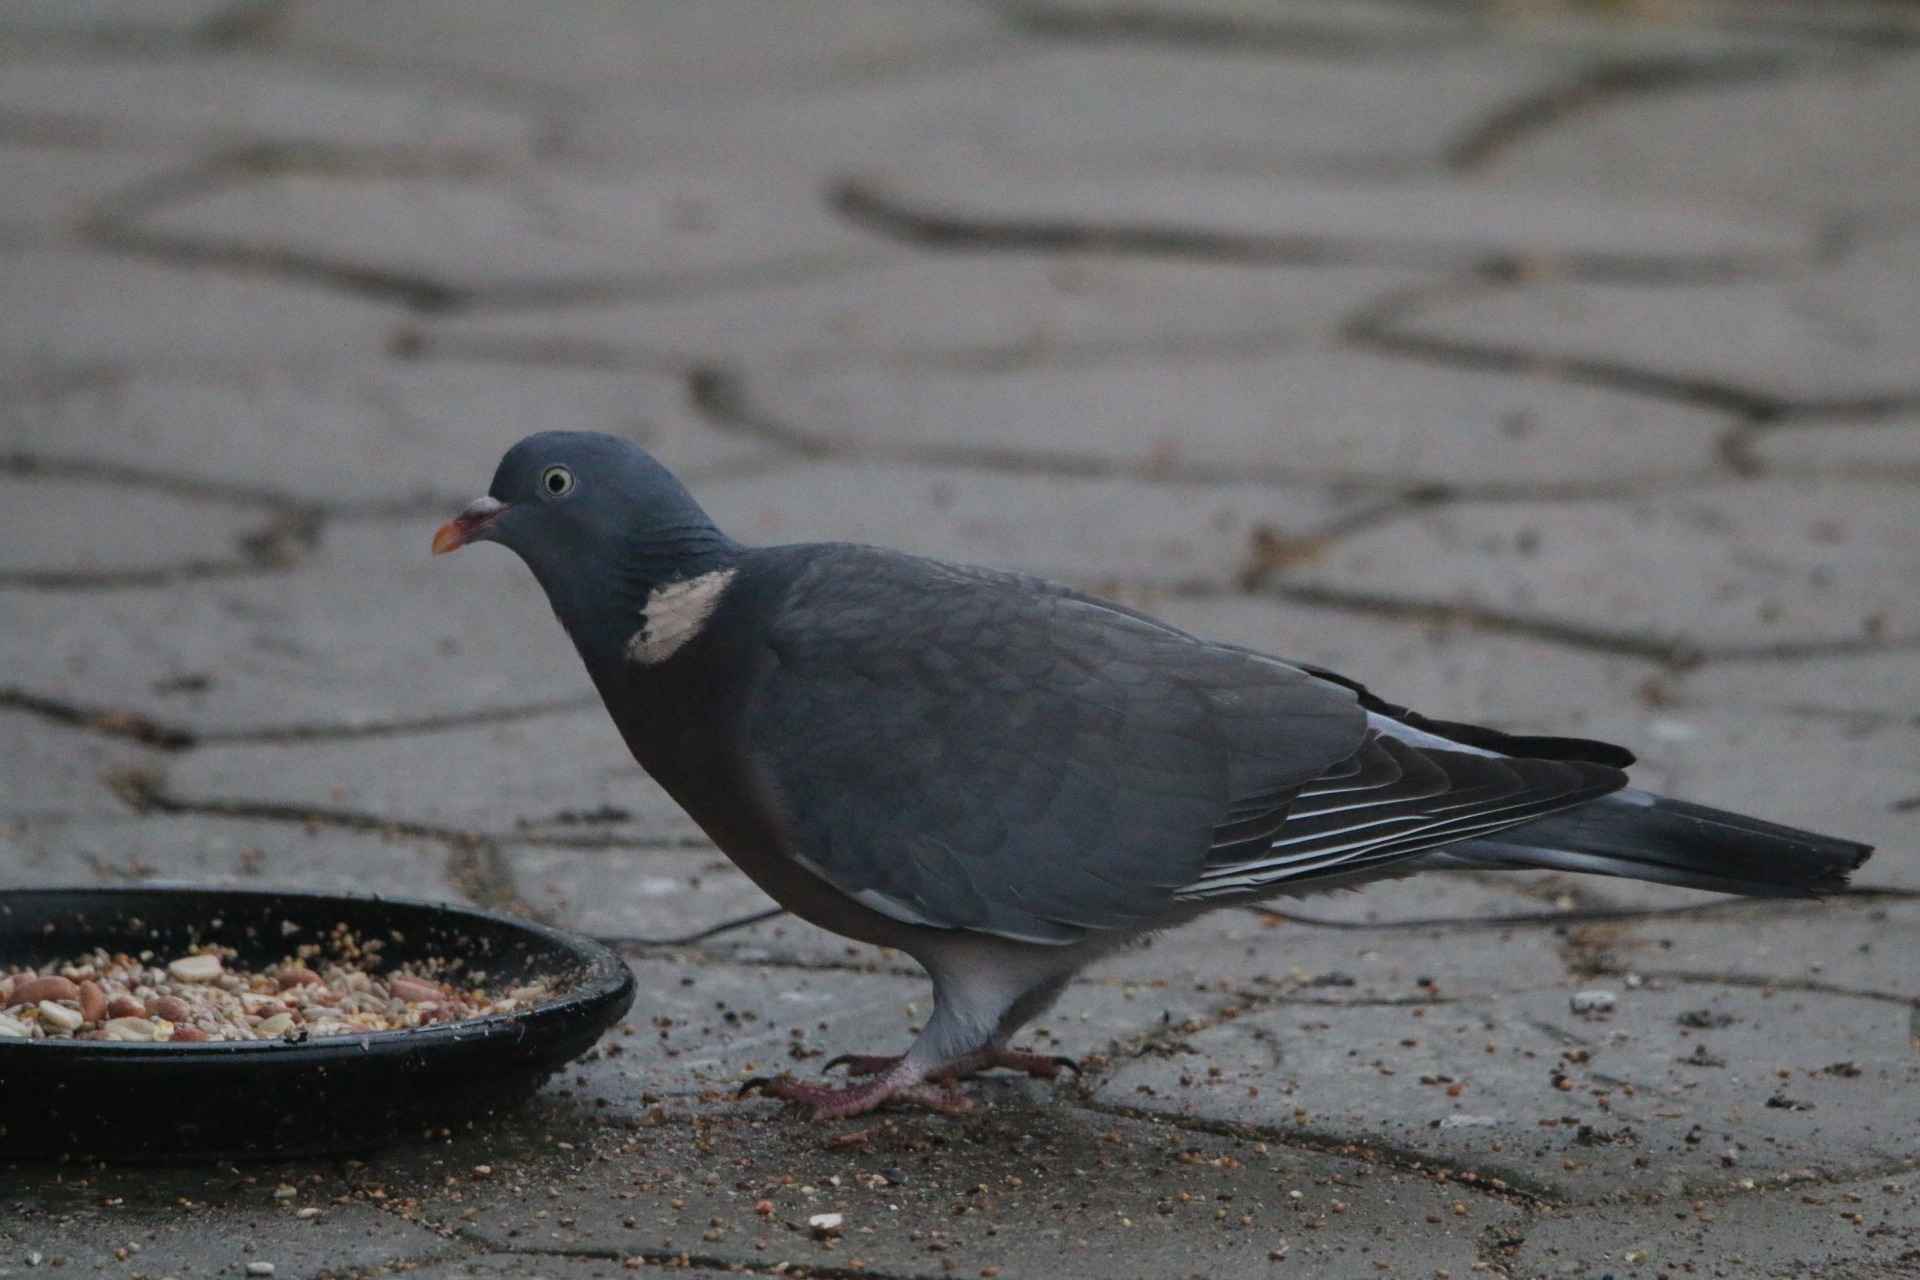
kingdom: Animalia
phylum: Chordata
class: Aves
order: Columbiformes
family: Columbidae
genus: Columba
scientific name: Columba palumbus
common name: Ringdue
